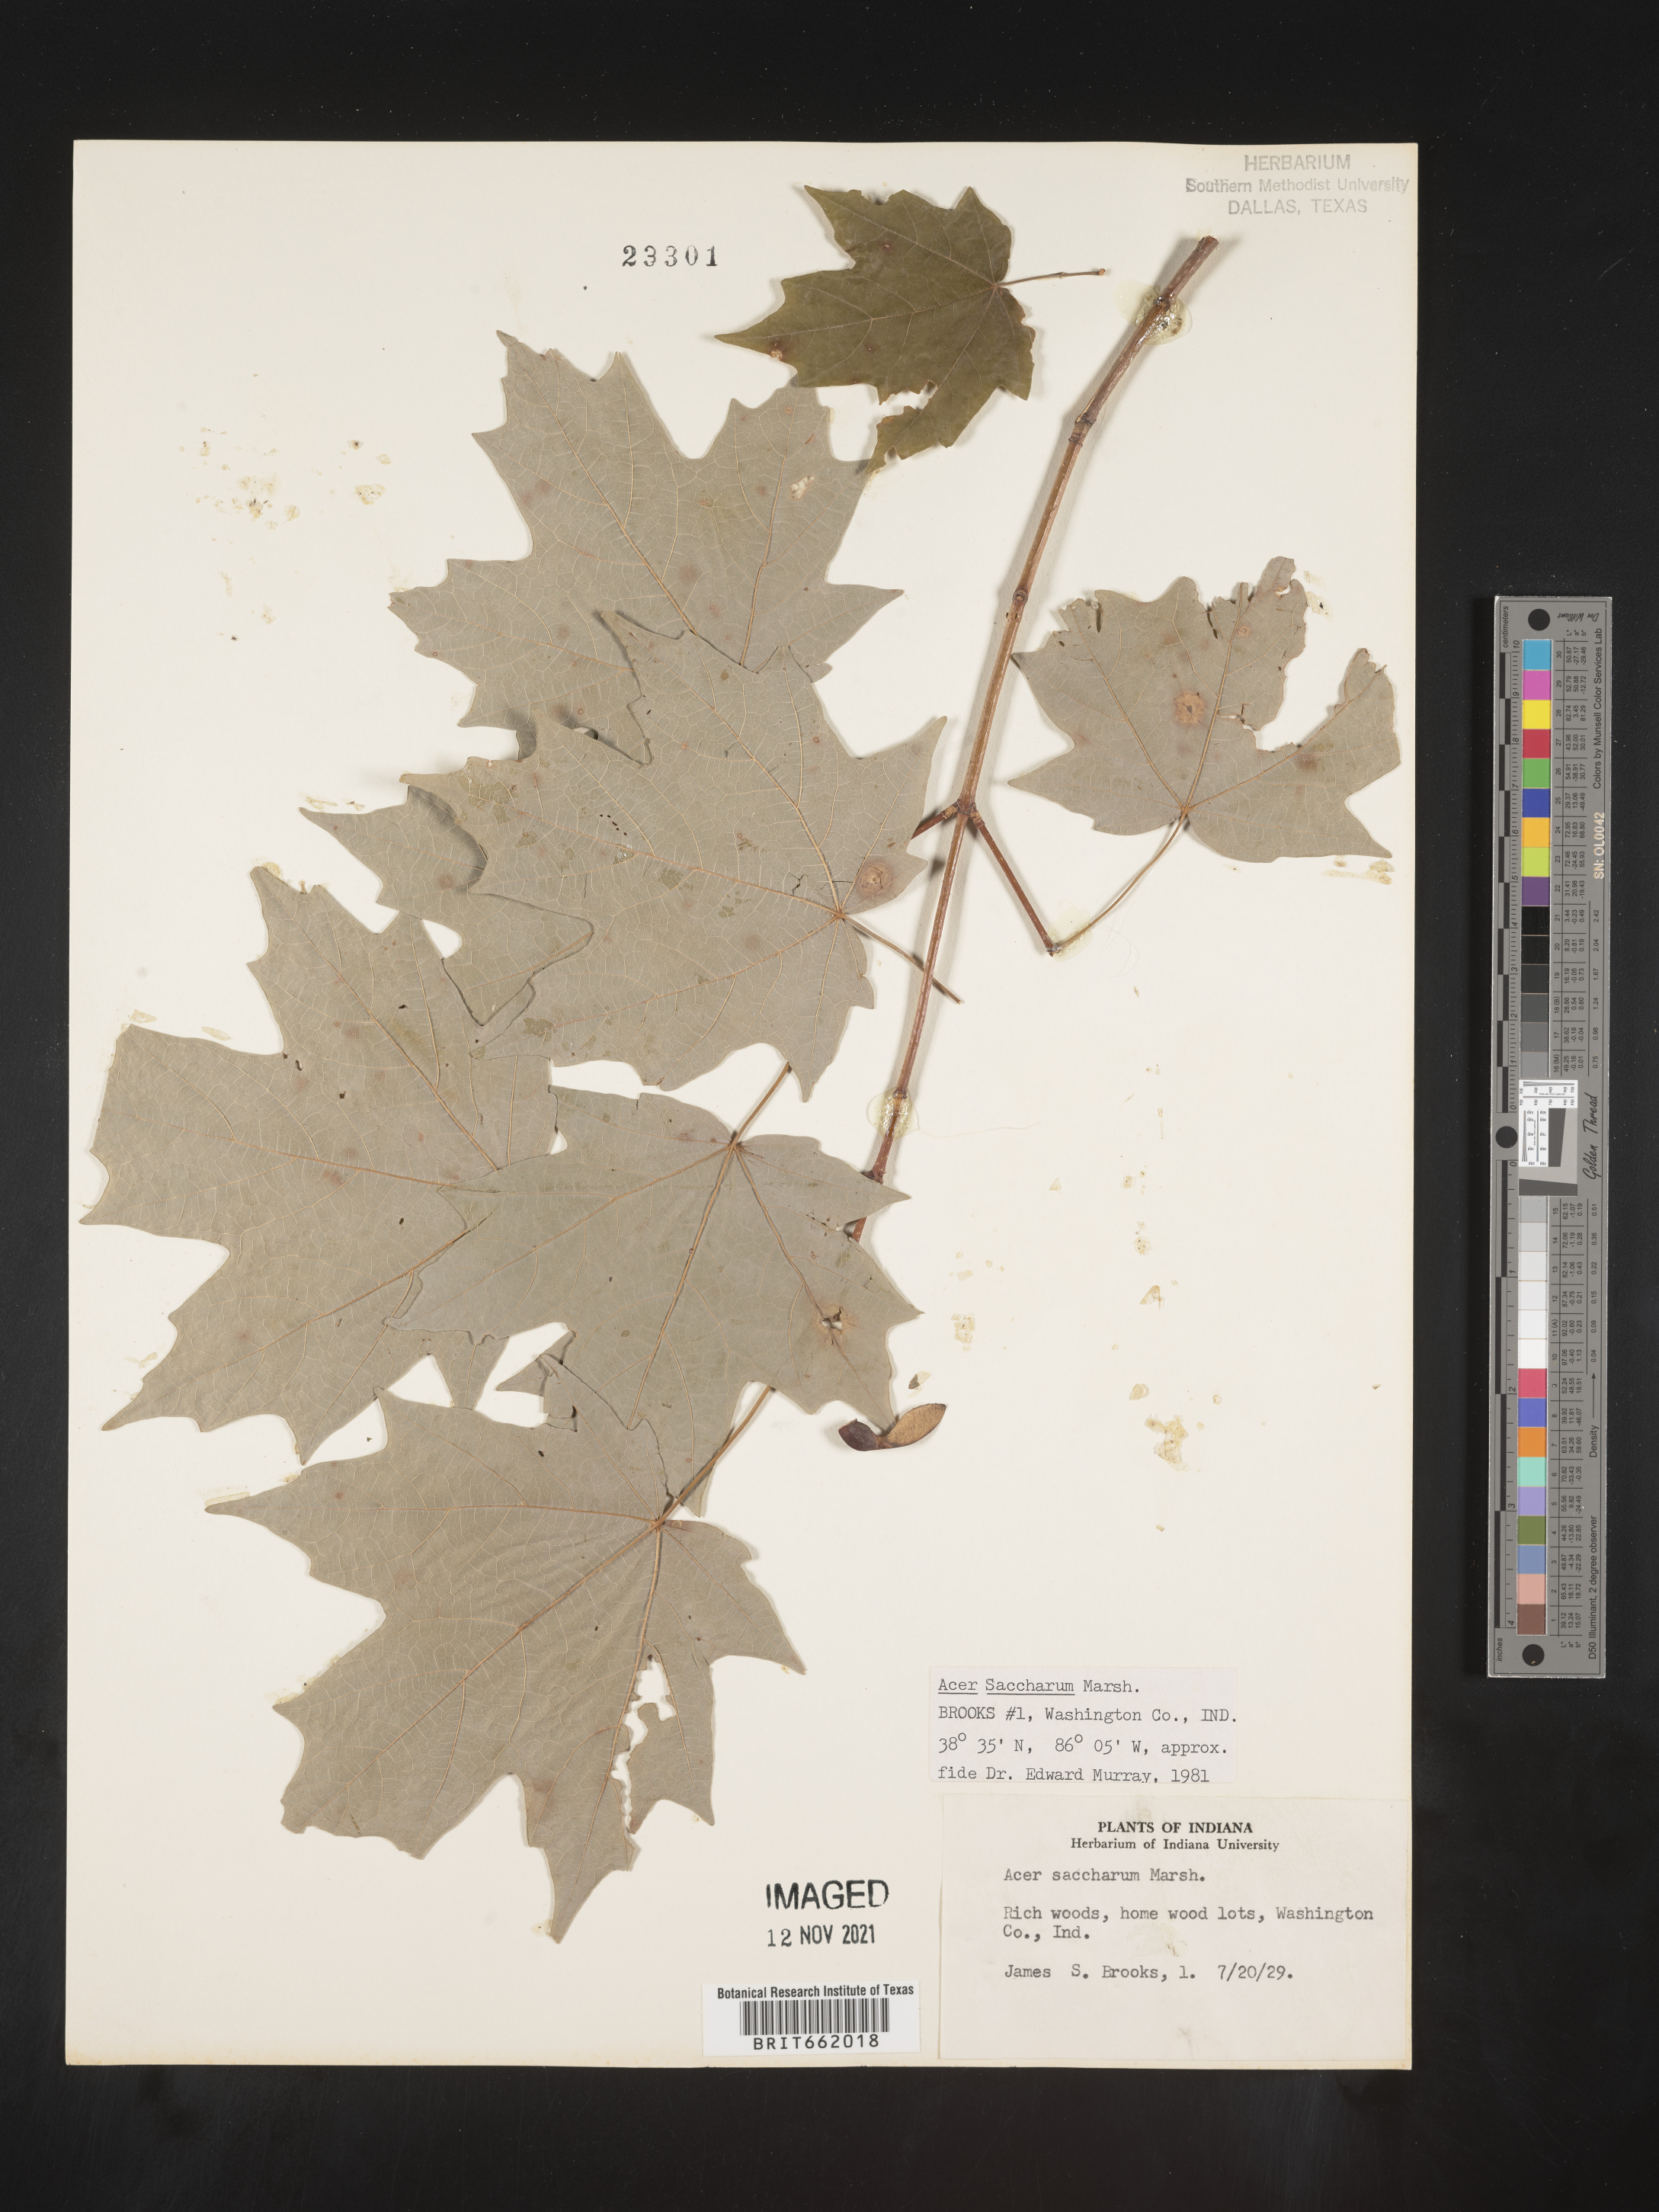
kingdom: Plantae
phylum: Tracheophyta
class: Magnoliopsida
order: Sapindales
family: Sapindaceae
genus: Acer
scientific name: Acer saccharum
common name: Sugar maple
